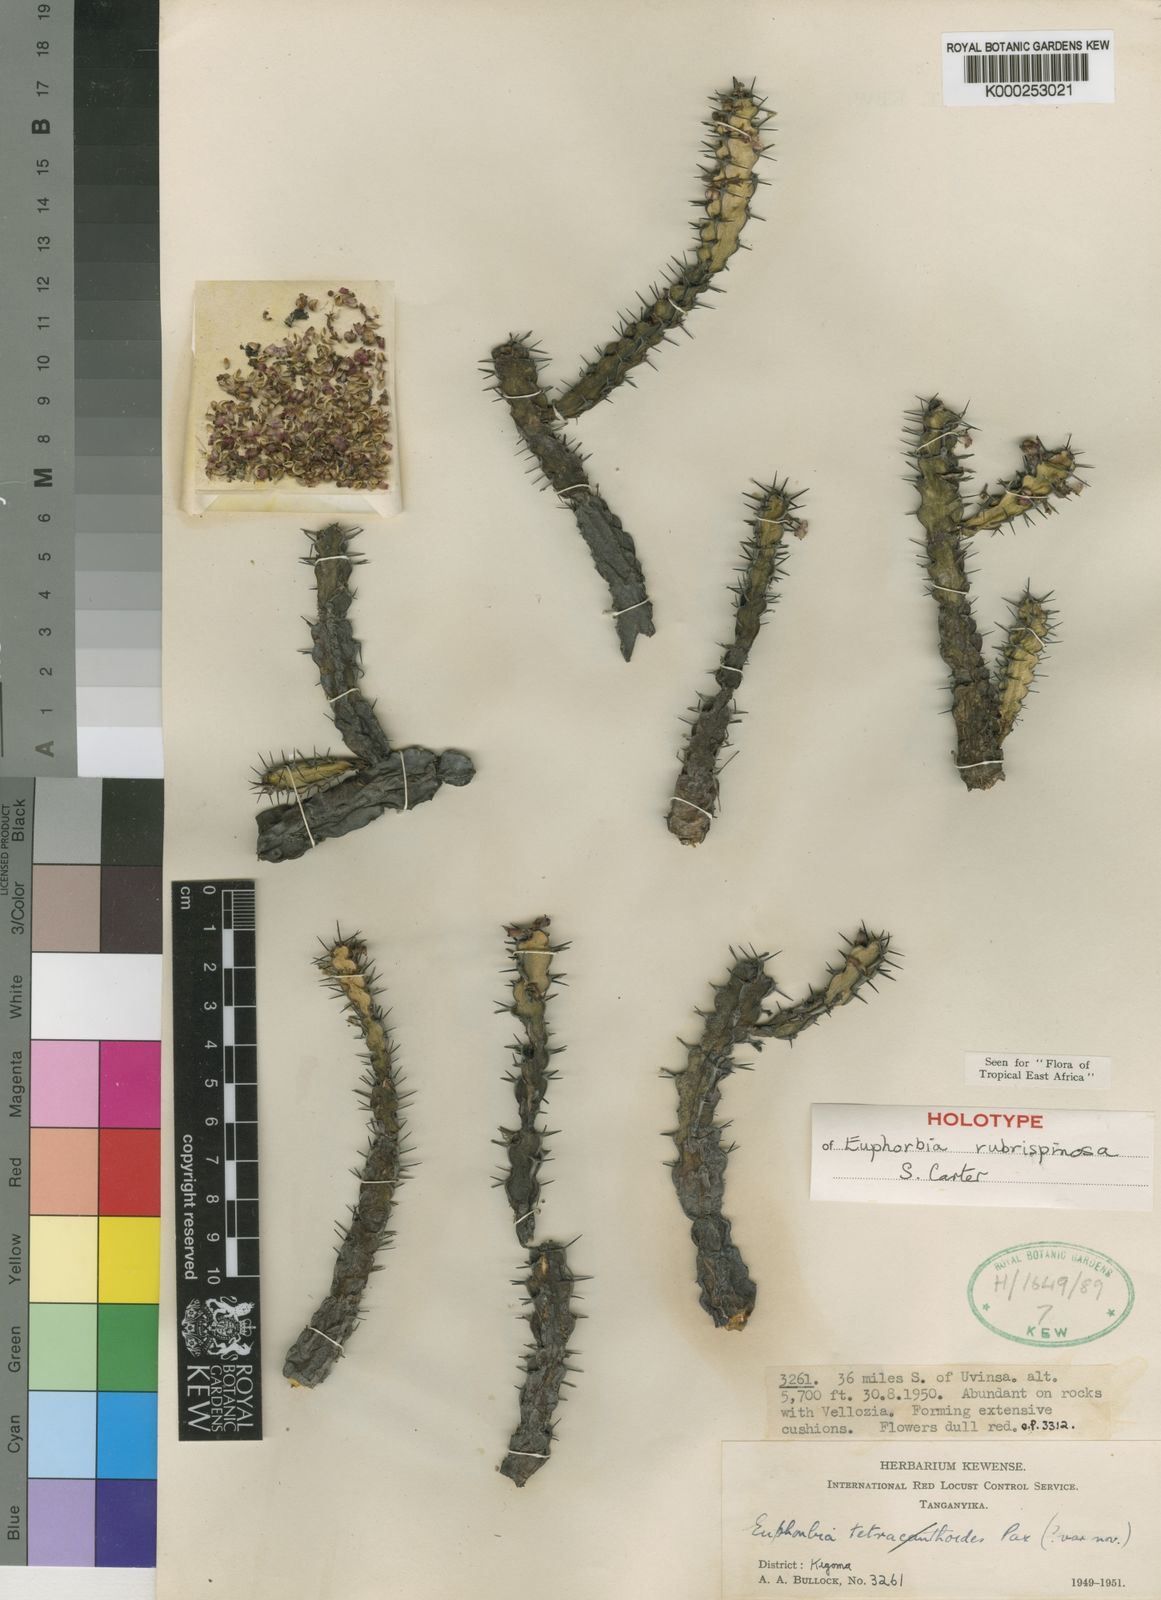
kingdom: Plantae
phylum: Tracheophyta
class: Magnoliopsida
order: Malpighiales
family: Euphorbiaceae
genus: Euphorbia
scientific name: Euphorbia tetracanthoides
